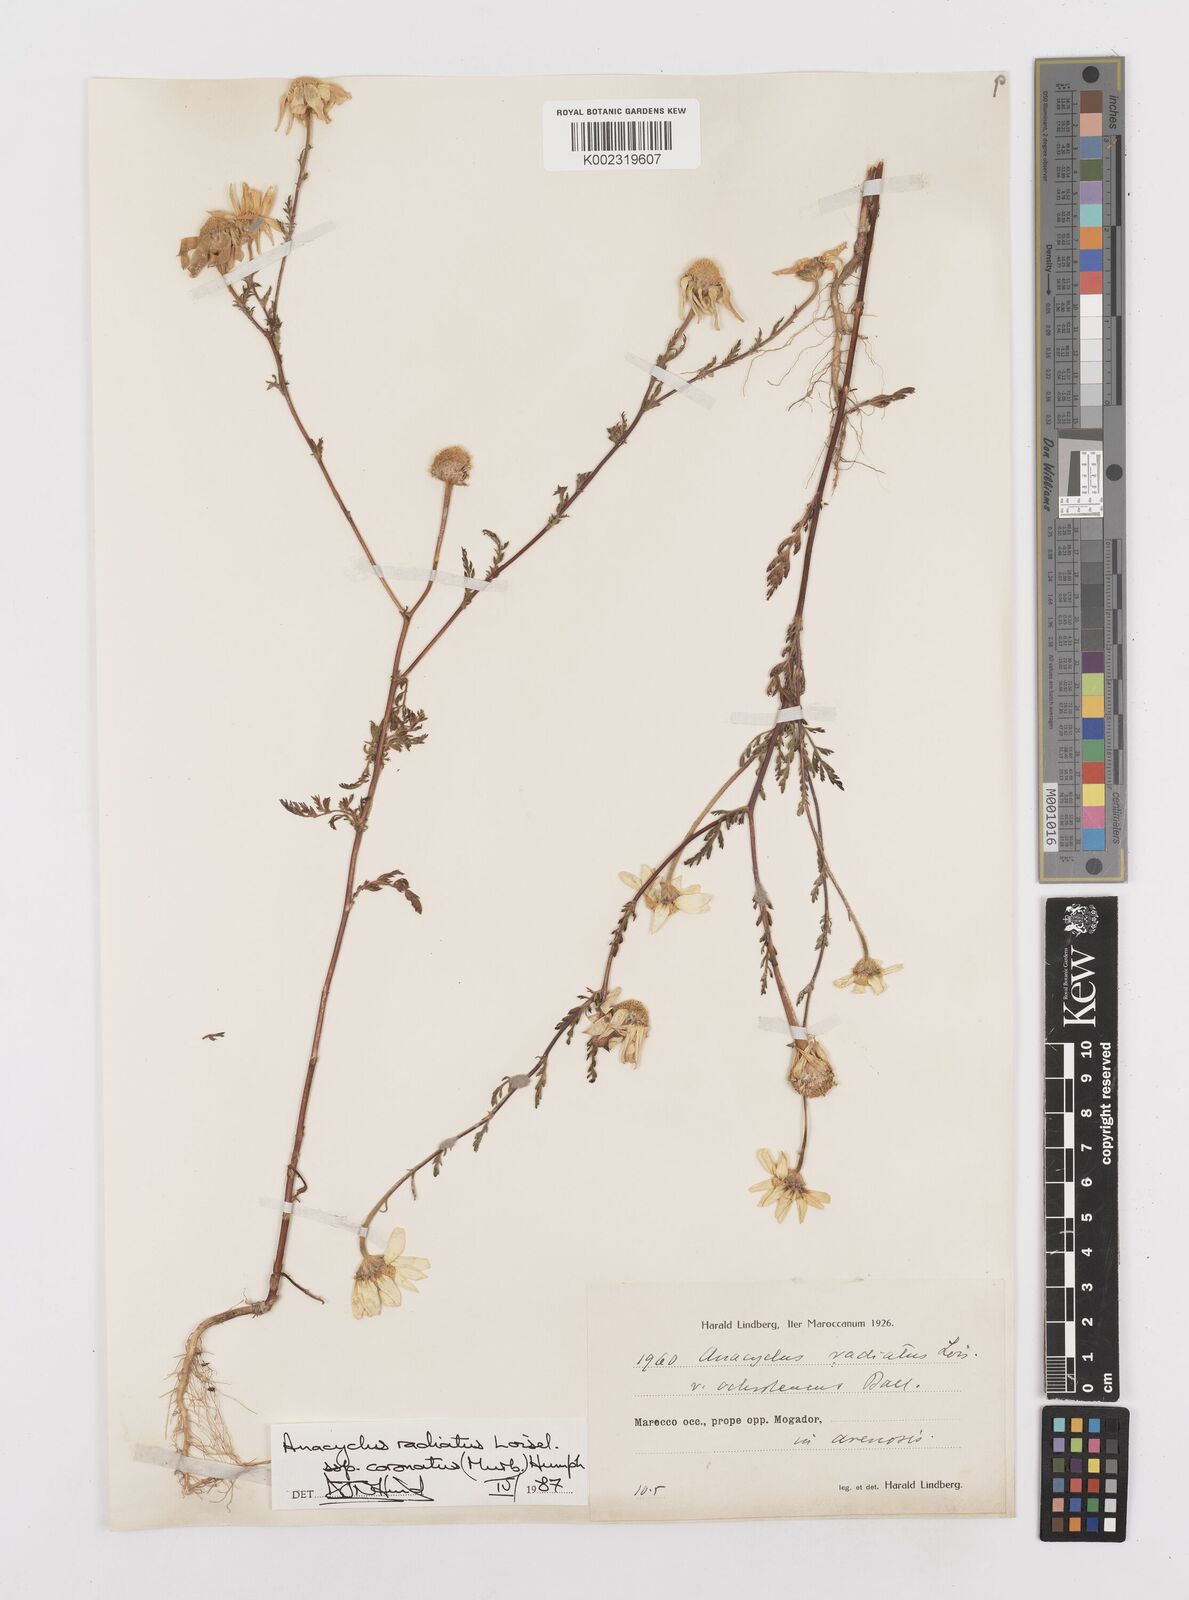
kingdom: Plantae
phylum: Tracheophyta
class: Magnoliopsida
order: Asterales
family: Asteraceae
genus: Anacyclus
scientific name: Anacyclus radiatus
